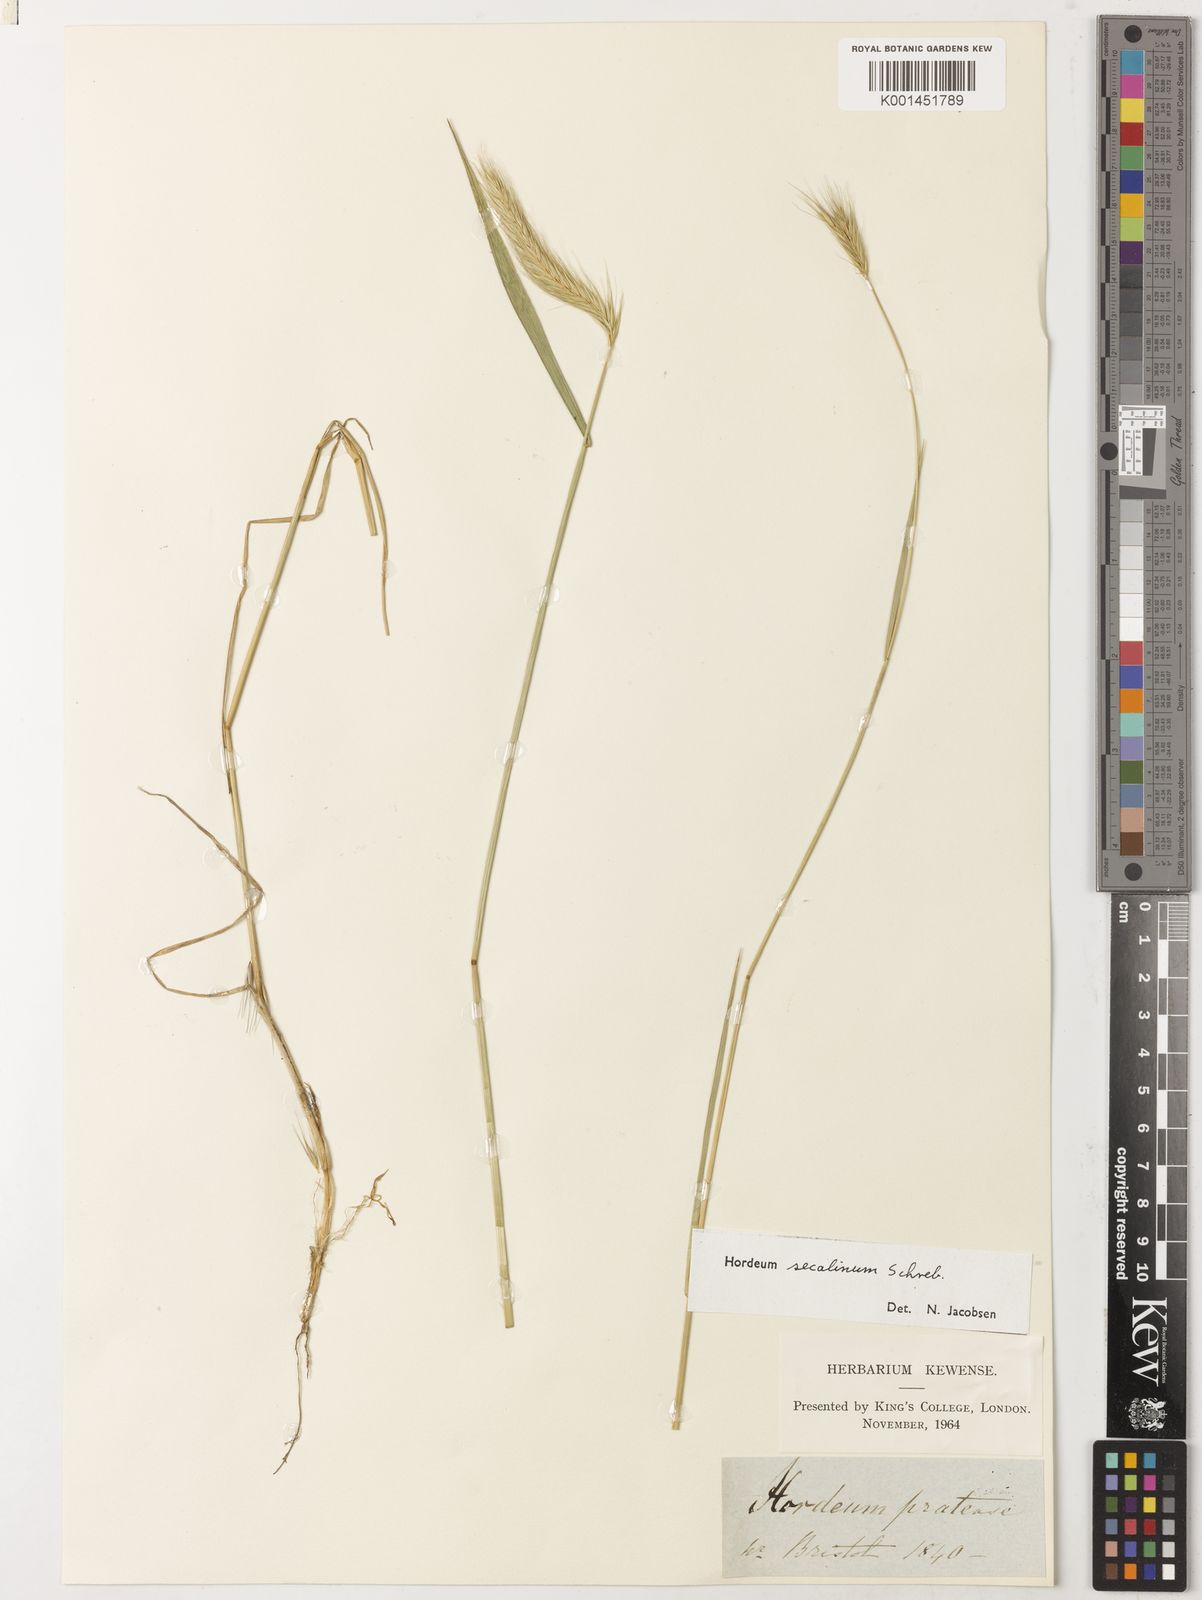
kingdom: Plantae
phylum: Tracheophyta
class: Liliopsida
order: Poales
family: Poaceae
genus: Hordeum
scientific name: Hordeum secalinum
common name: Meadow barley
